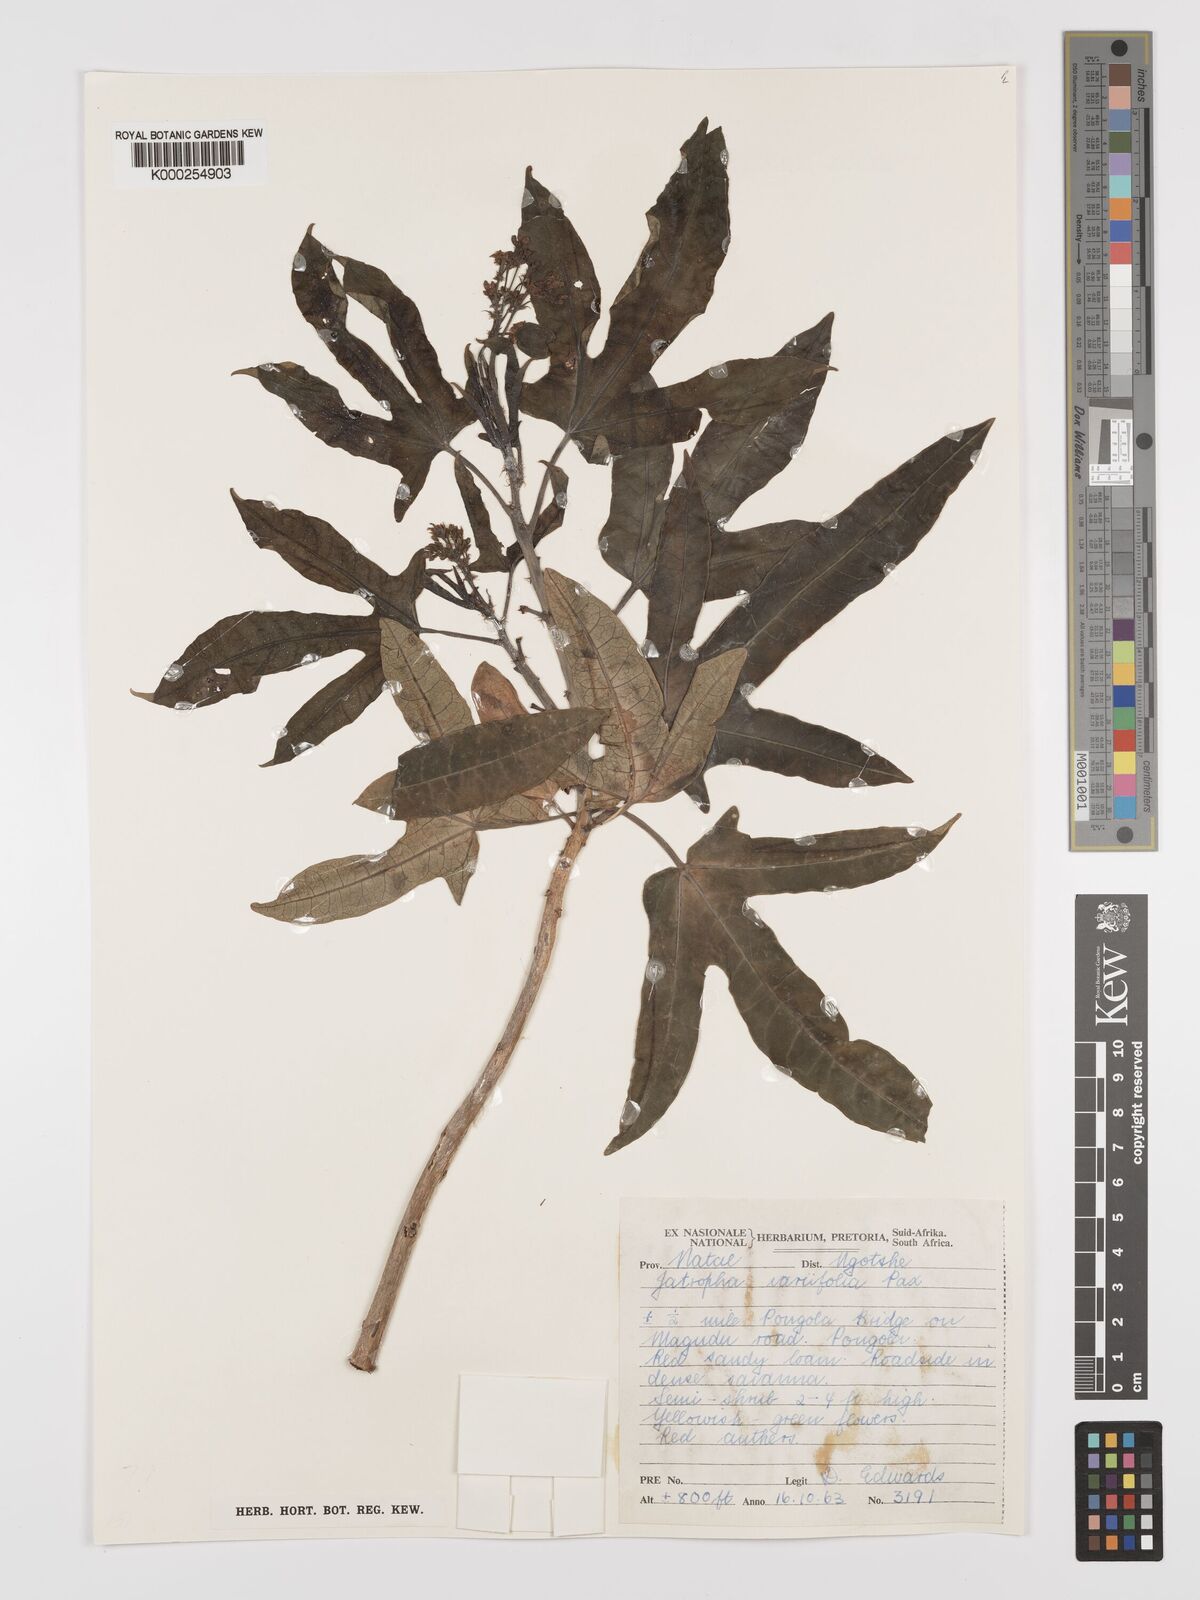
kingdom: Plantae
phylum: Tracheophyta
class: Magnoliopsida
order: Malpighiales
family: Euphorbiaceae
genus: Jatropha
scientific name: Jatropha variifolia
